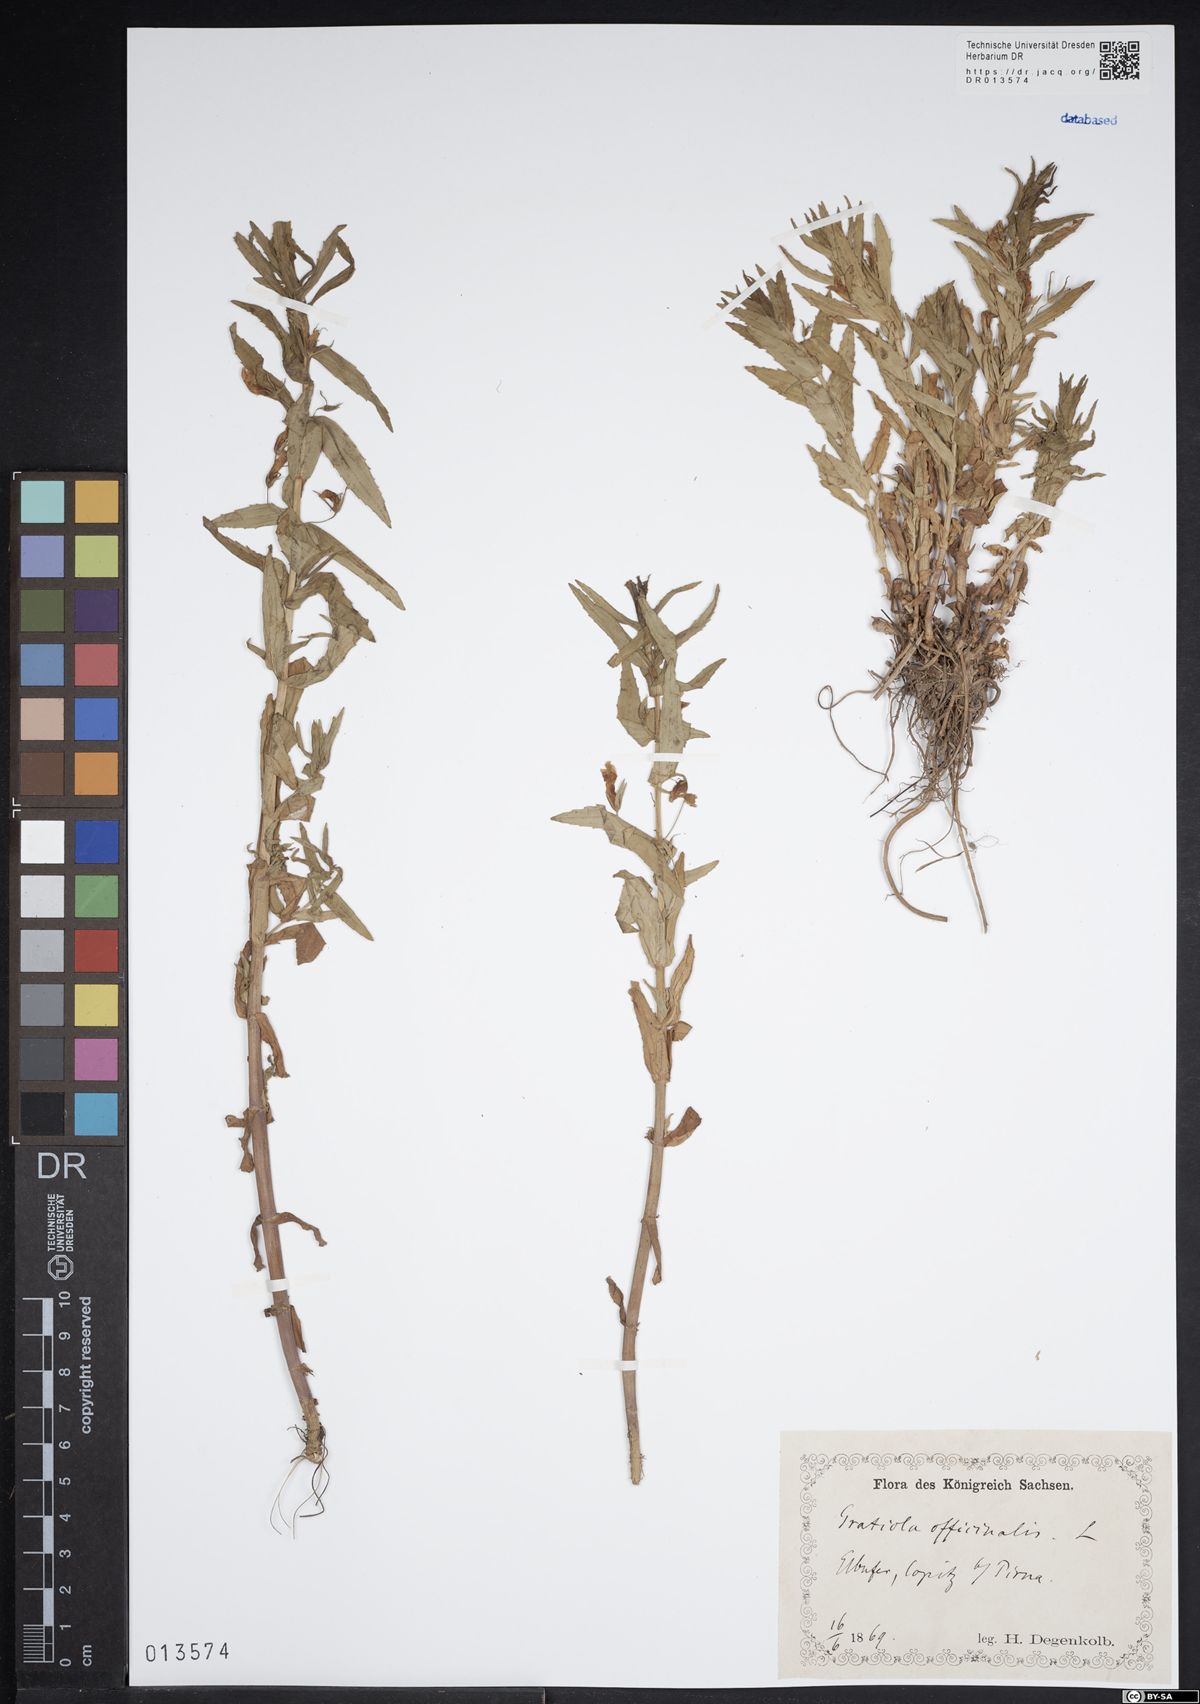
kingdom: Plantae
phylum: Tracheophyta
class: Magnoliopsida
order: Lamiales
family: Plantaginaceae
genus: Gratiola
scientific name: Gratiola officinalis
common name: Gratiola
